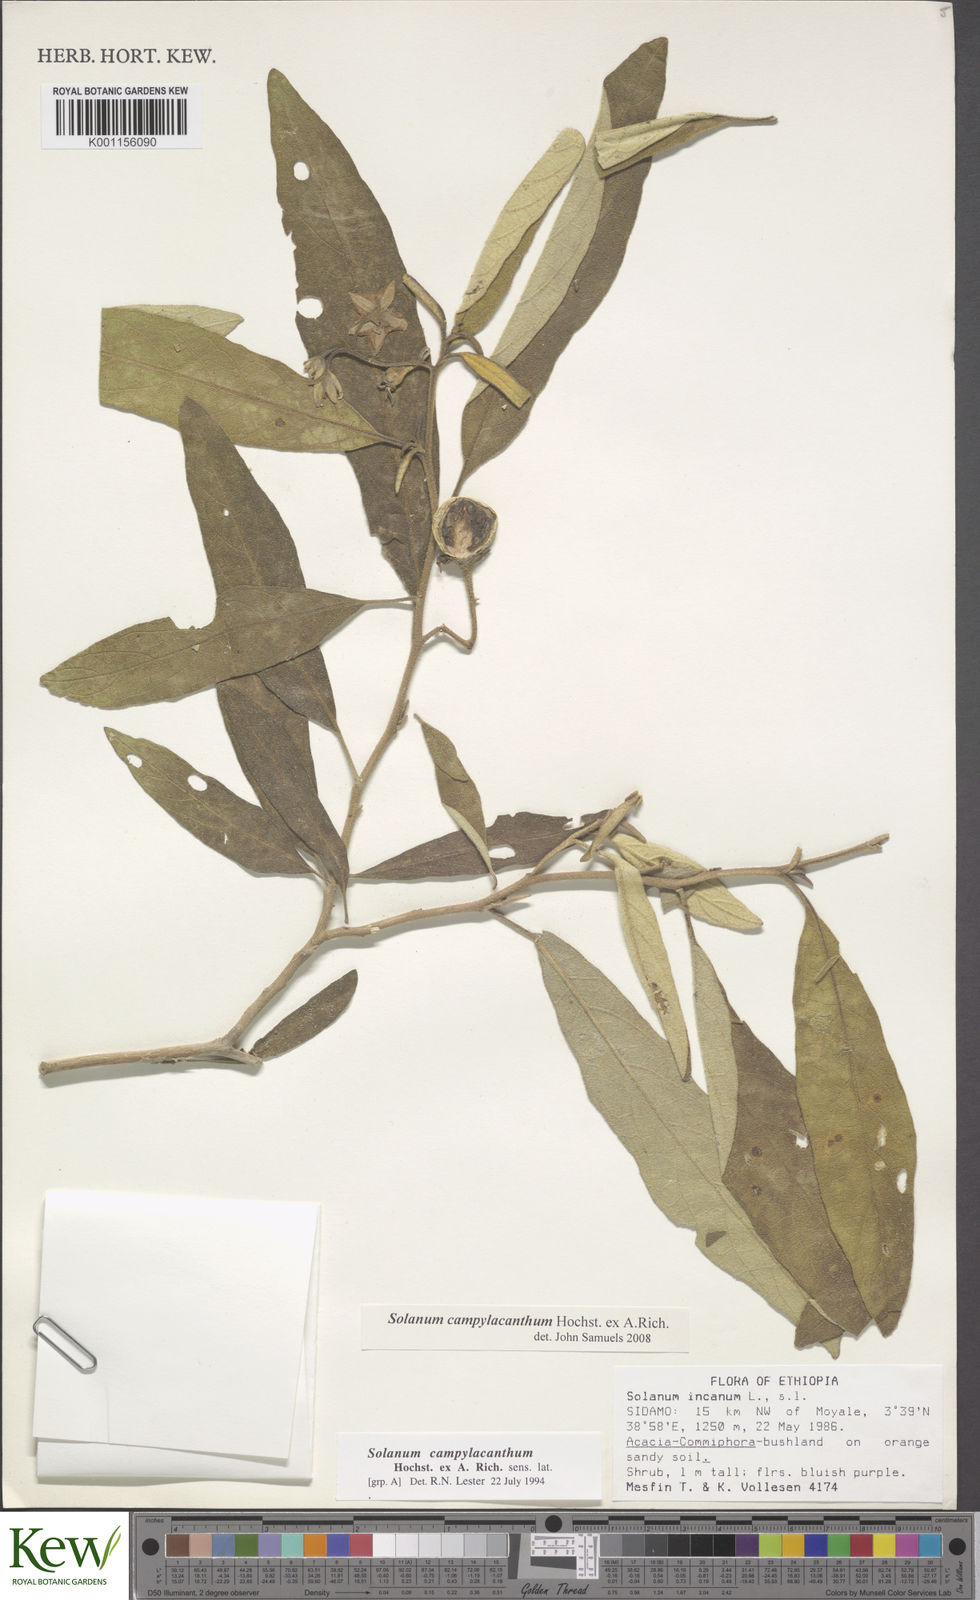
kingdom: Plantae
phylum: Tracheophyta
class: Magnoliopsida
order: Solanales
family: Solanaceae
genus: Solanum
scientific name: Solanum campylacanthum
